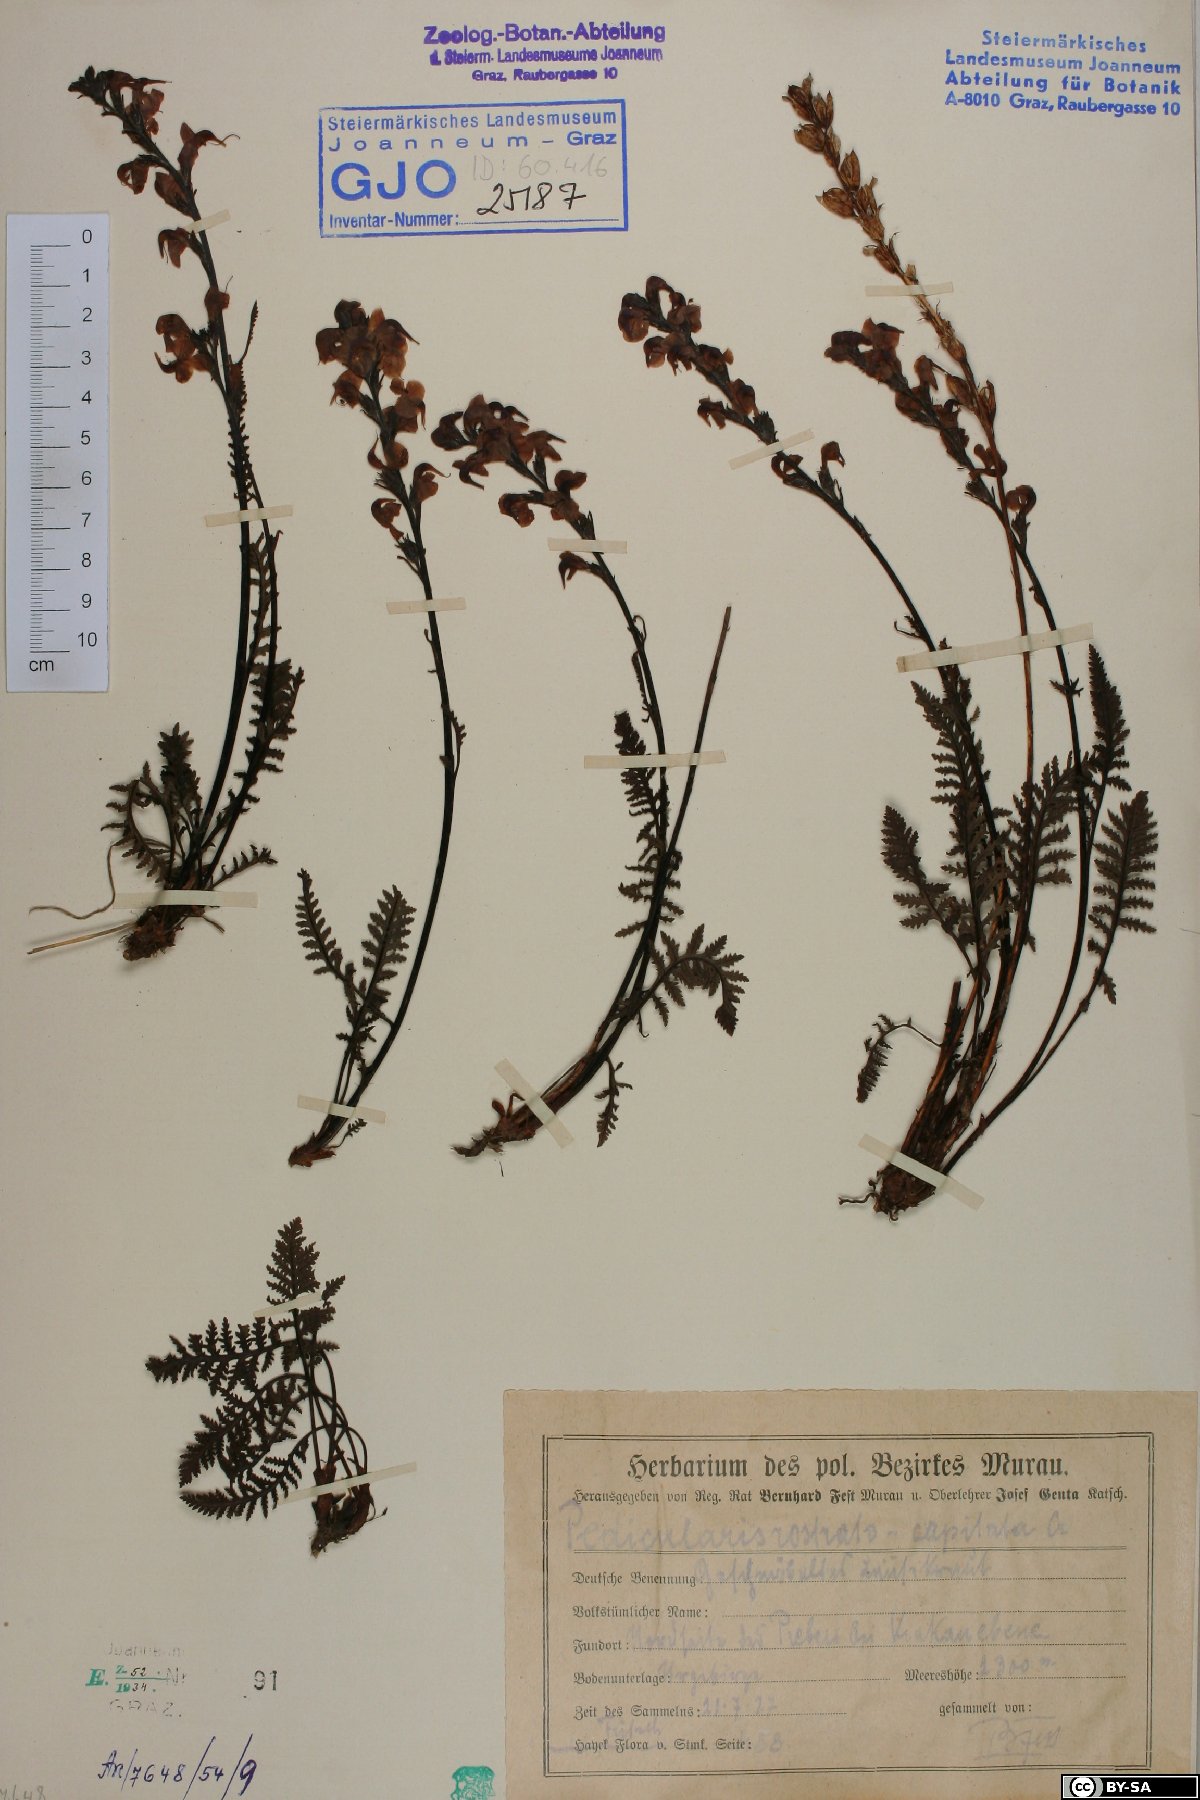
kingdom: Plantae
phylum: Tracheophyta
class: Magnoliopsida
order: Lamiales
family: Orobanchaceae
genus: Pedicularis
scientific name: Pedicularis rostratospicata
